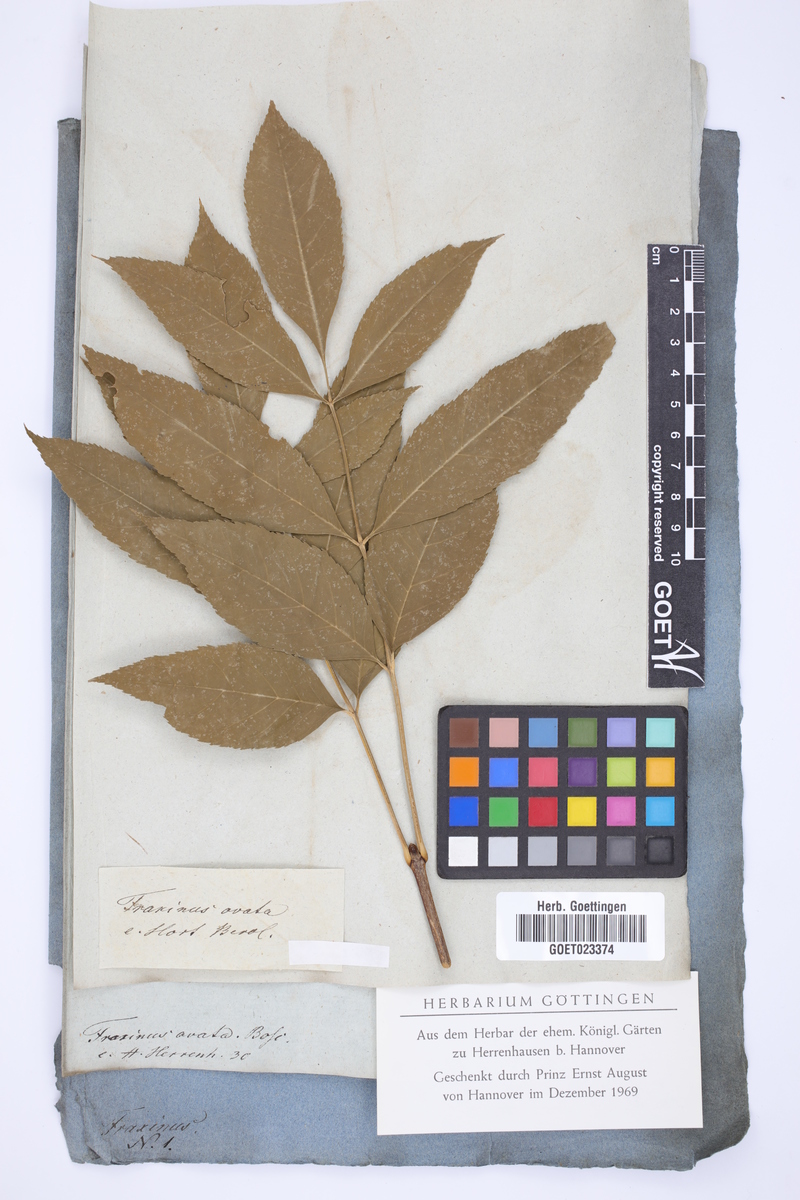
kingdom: Plantae
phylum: Tracheophyta
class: Magnoliopsida
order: Lamiales
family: Oleaceae
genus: Fraxinus
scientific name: Fraxinus pennsylvanica
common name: Green ash
